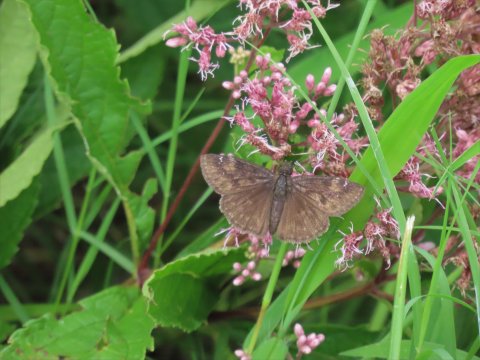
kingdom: Animalia
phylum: Arthropoda
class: Insecta
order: Lepidoptera
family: Hesperiidae
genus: Gesta
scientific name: Gesta
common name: Wild Indigo Duskywing
